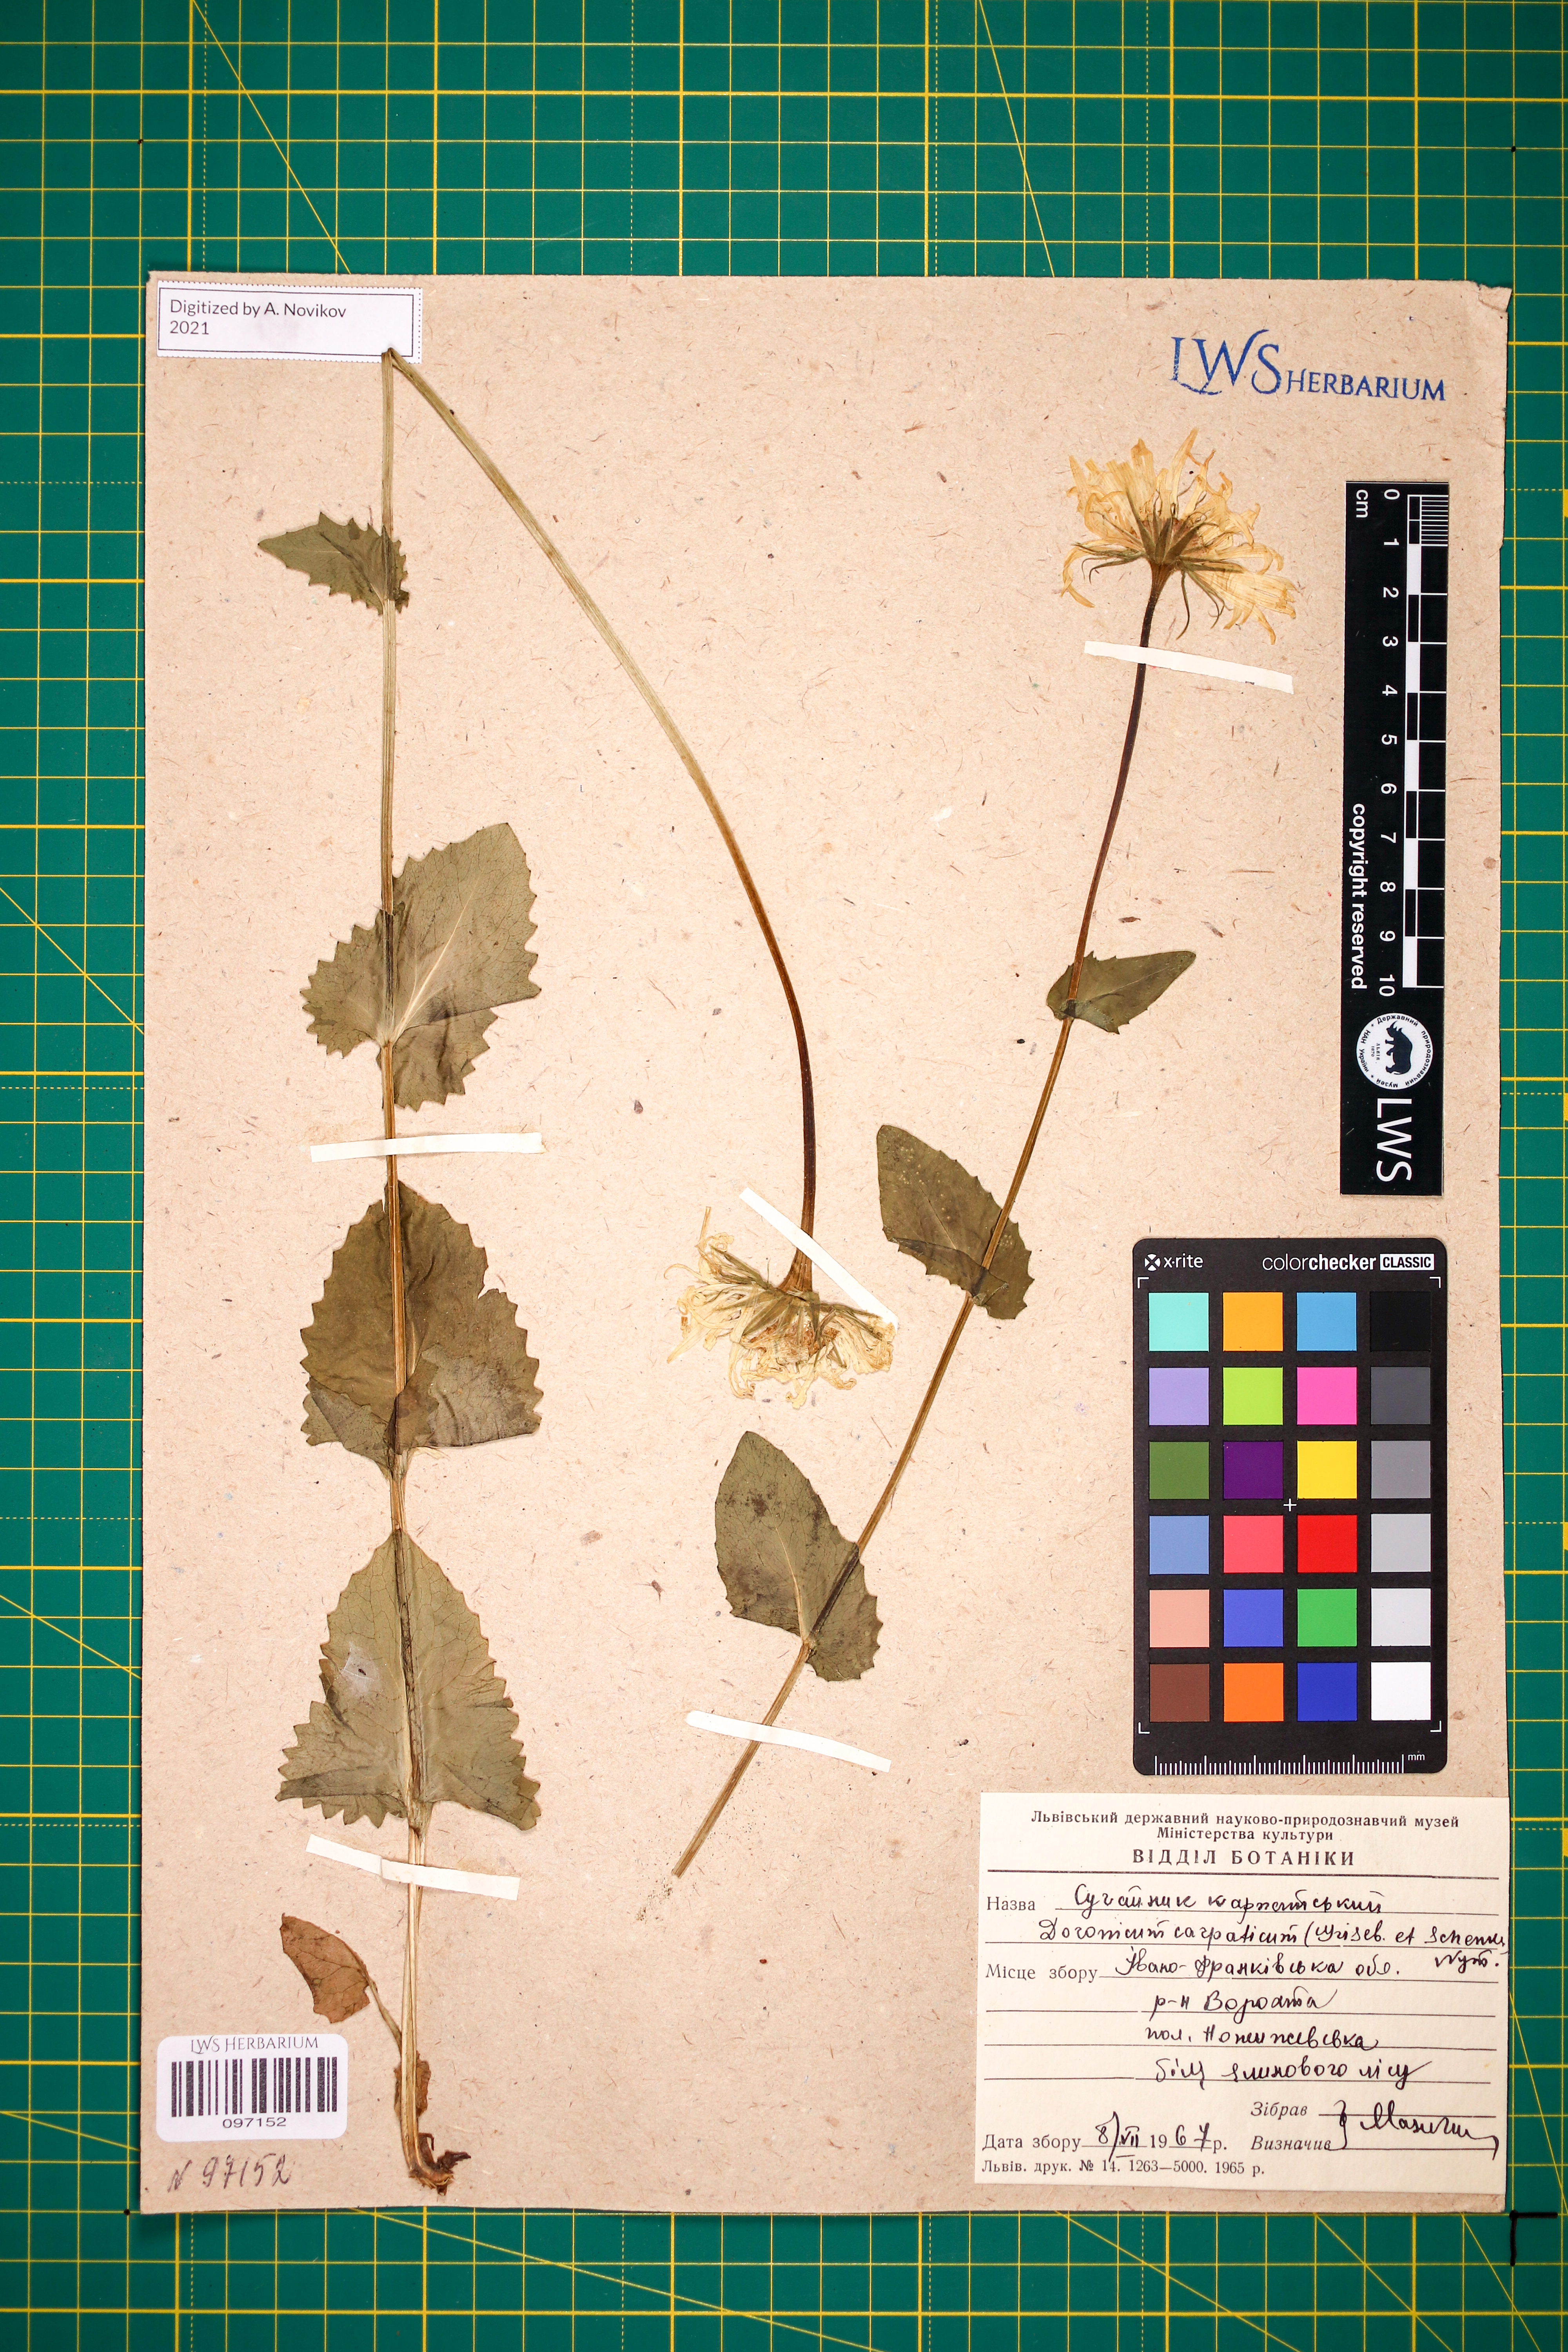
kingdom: Plantae
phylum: Tracheophyta
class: Magnoliopsida
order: Asterales
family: Asteraceae
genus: Doronicum
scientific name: Doronicum carpaticum
